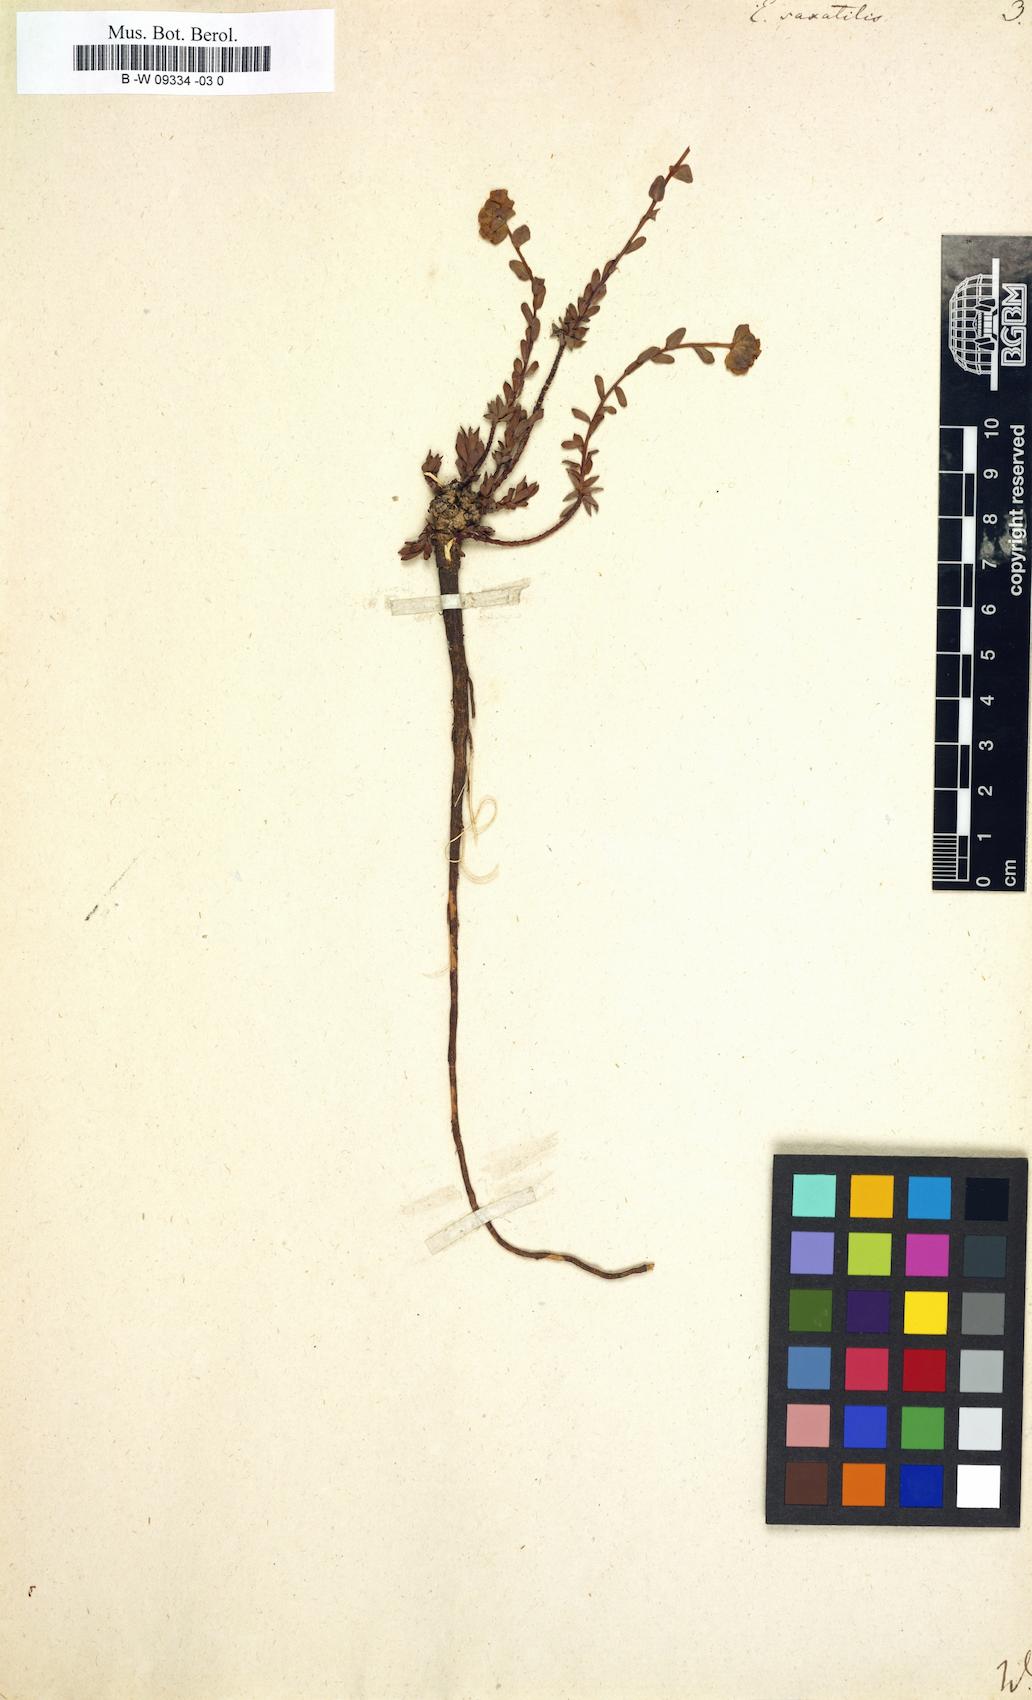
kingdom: Plantae
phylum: Tracheophyta
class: Magnoliopsida
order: Malpighiales
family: Euphorbiaceae
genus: Euphorbia
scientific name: Euphorbia saxatilis
